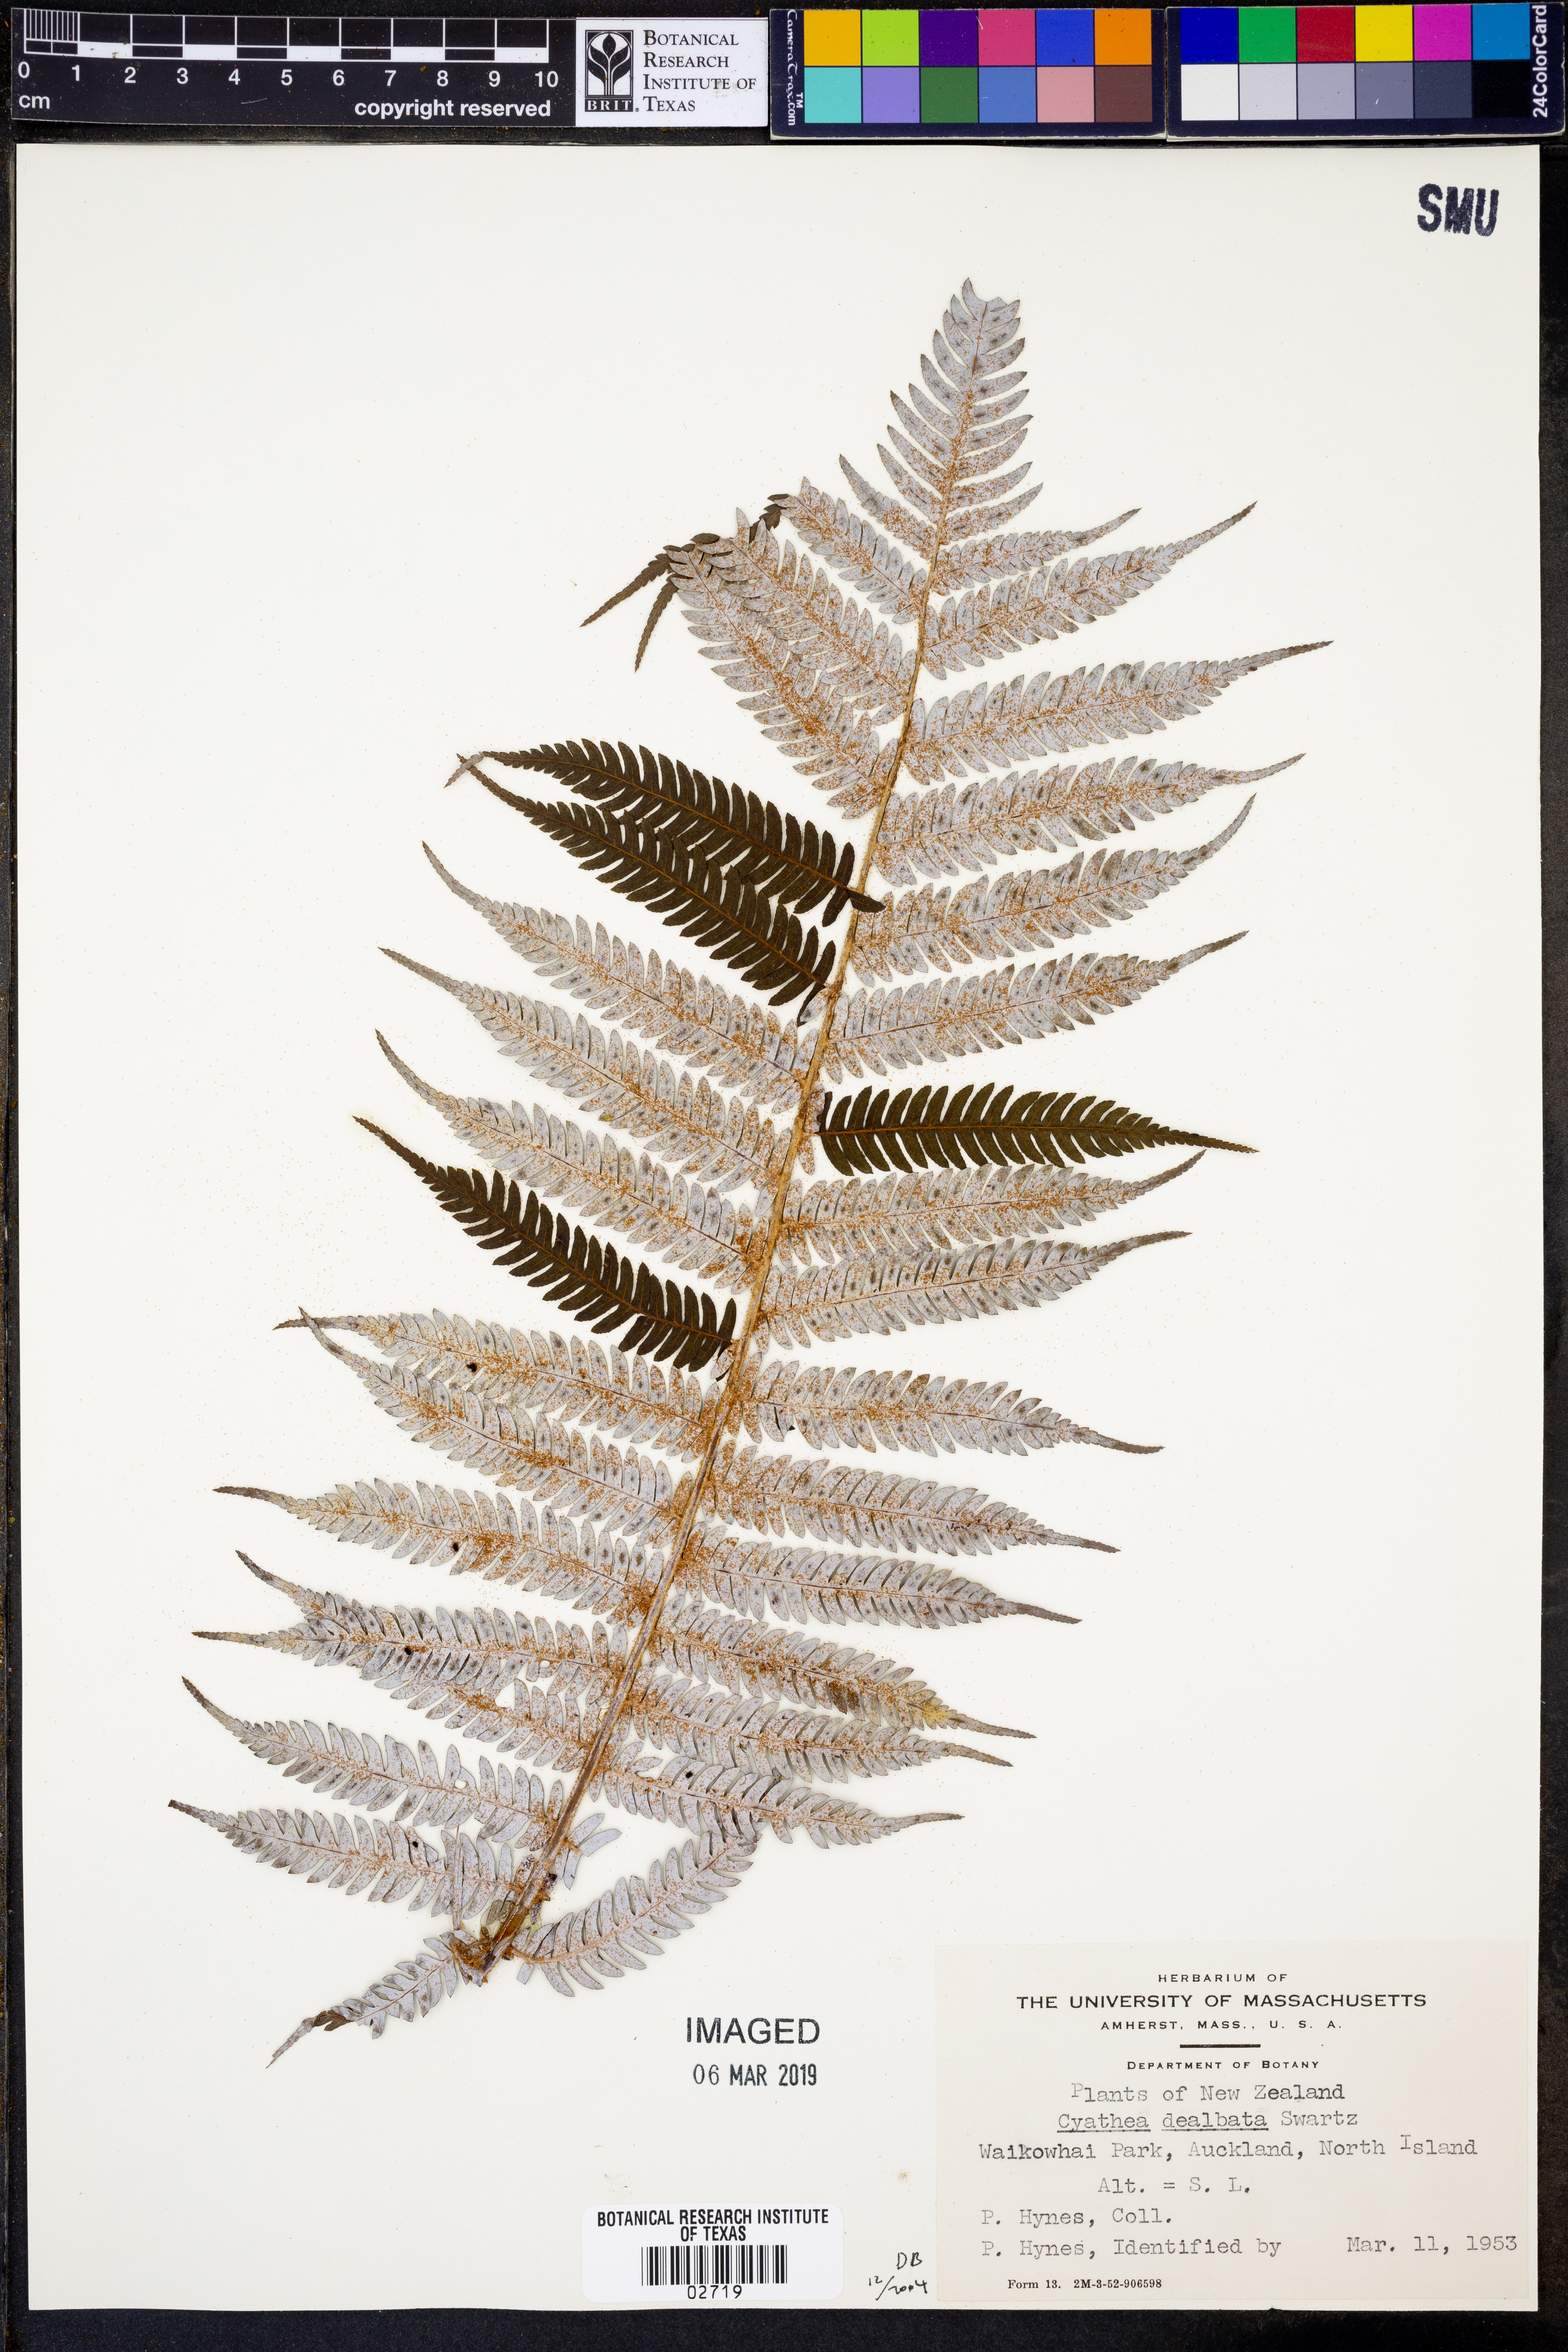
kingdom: Plantae
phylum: Tracheophyta
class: Polypodiopsida
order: Cyatheales
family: Cyatheaceae
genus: Alsophila
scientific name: Alsophila dealbata
